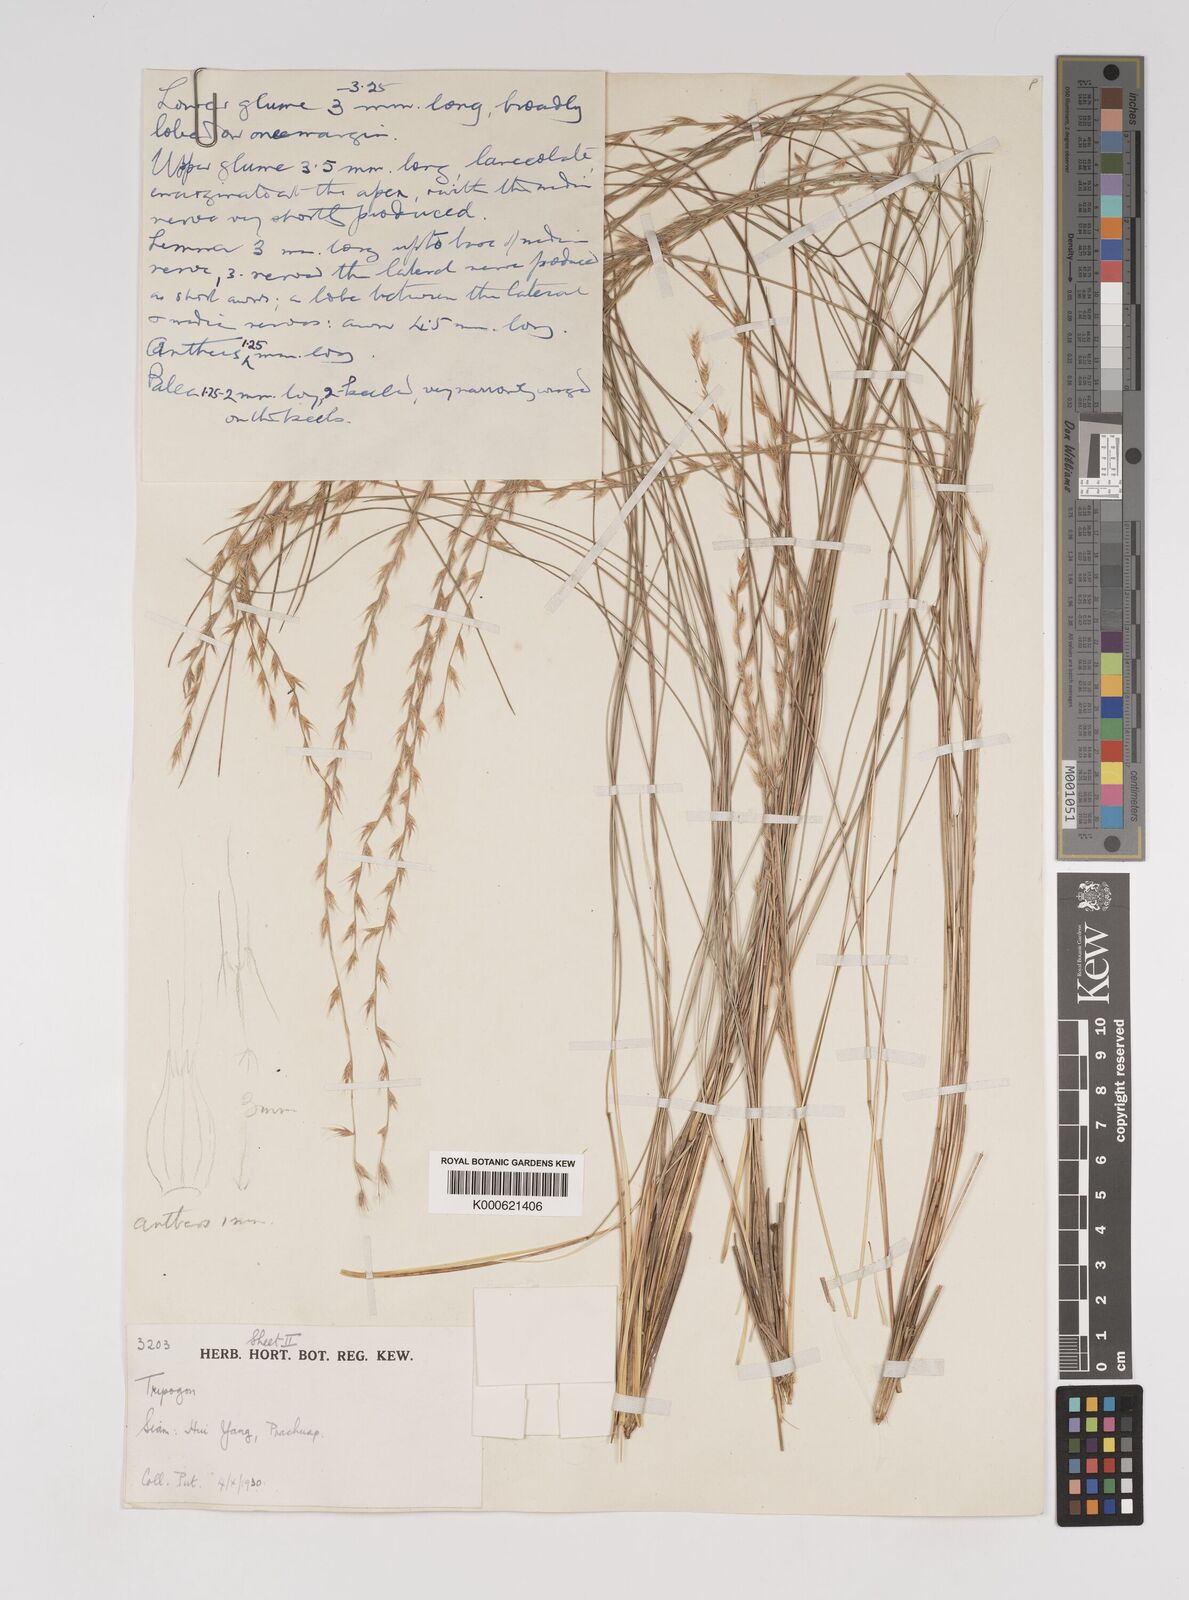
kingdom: Plantae
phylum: Tracheophyta
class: Liliopsida
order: Poales
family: Poaceae
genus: Tripogon
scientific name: Tripogon
